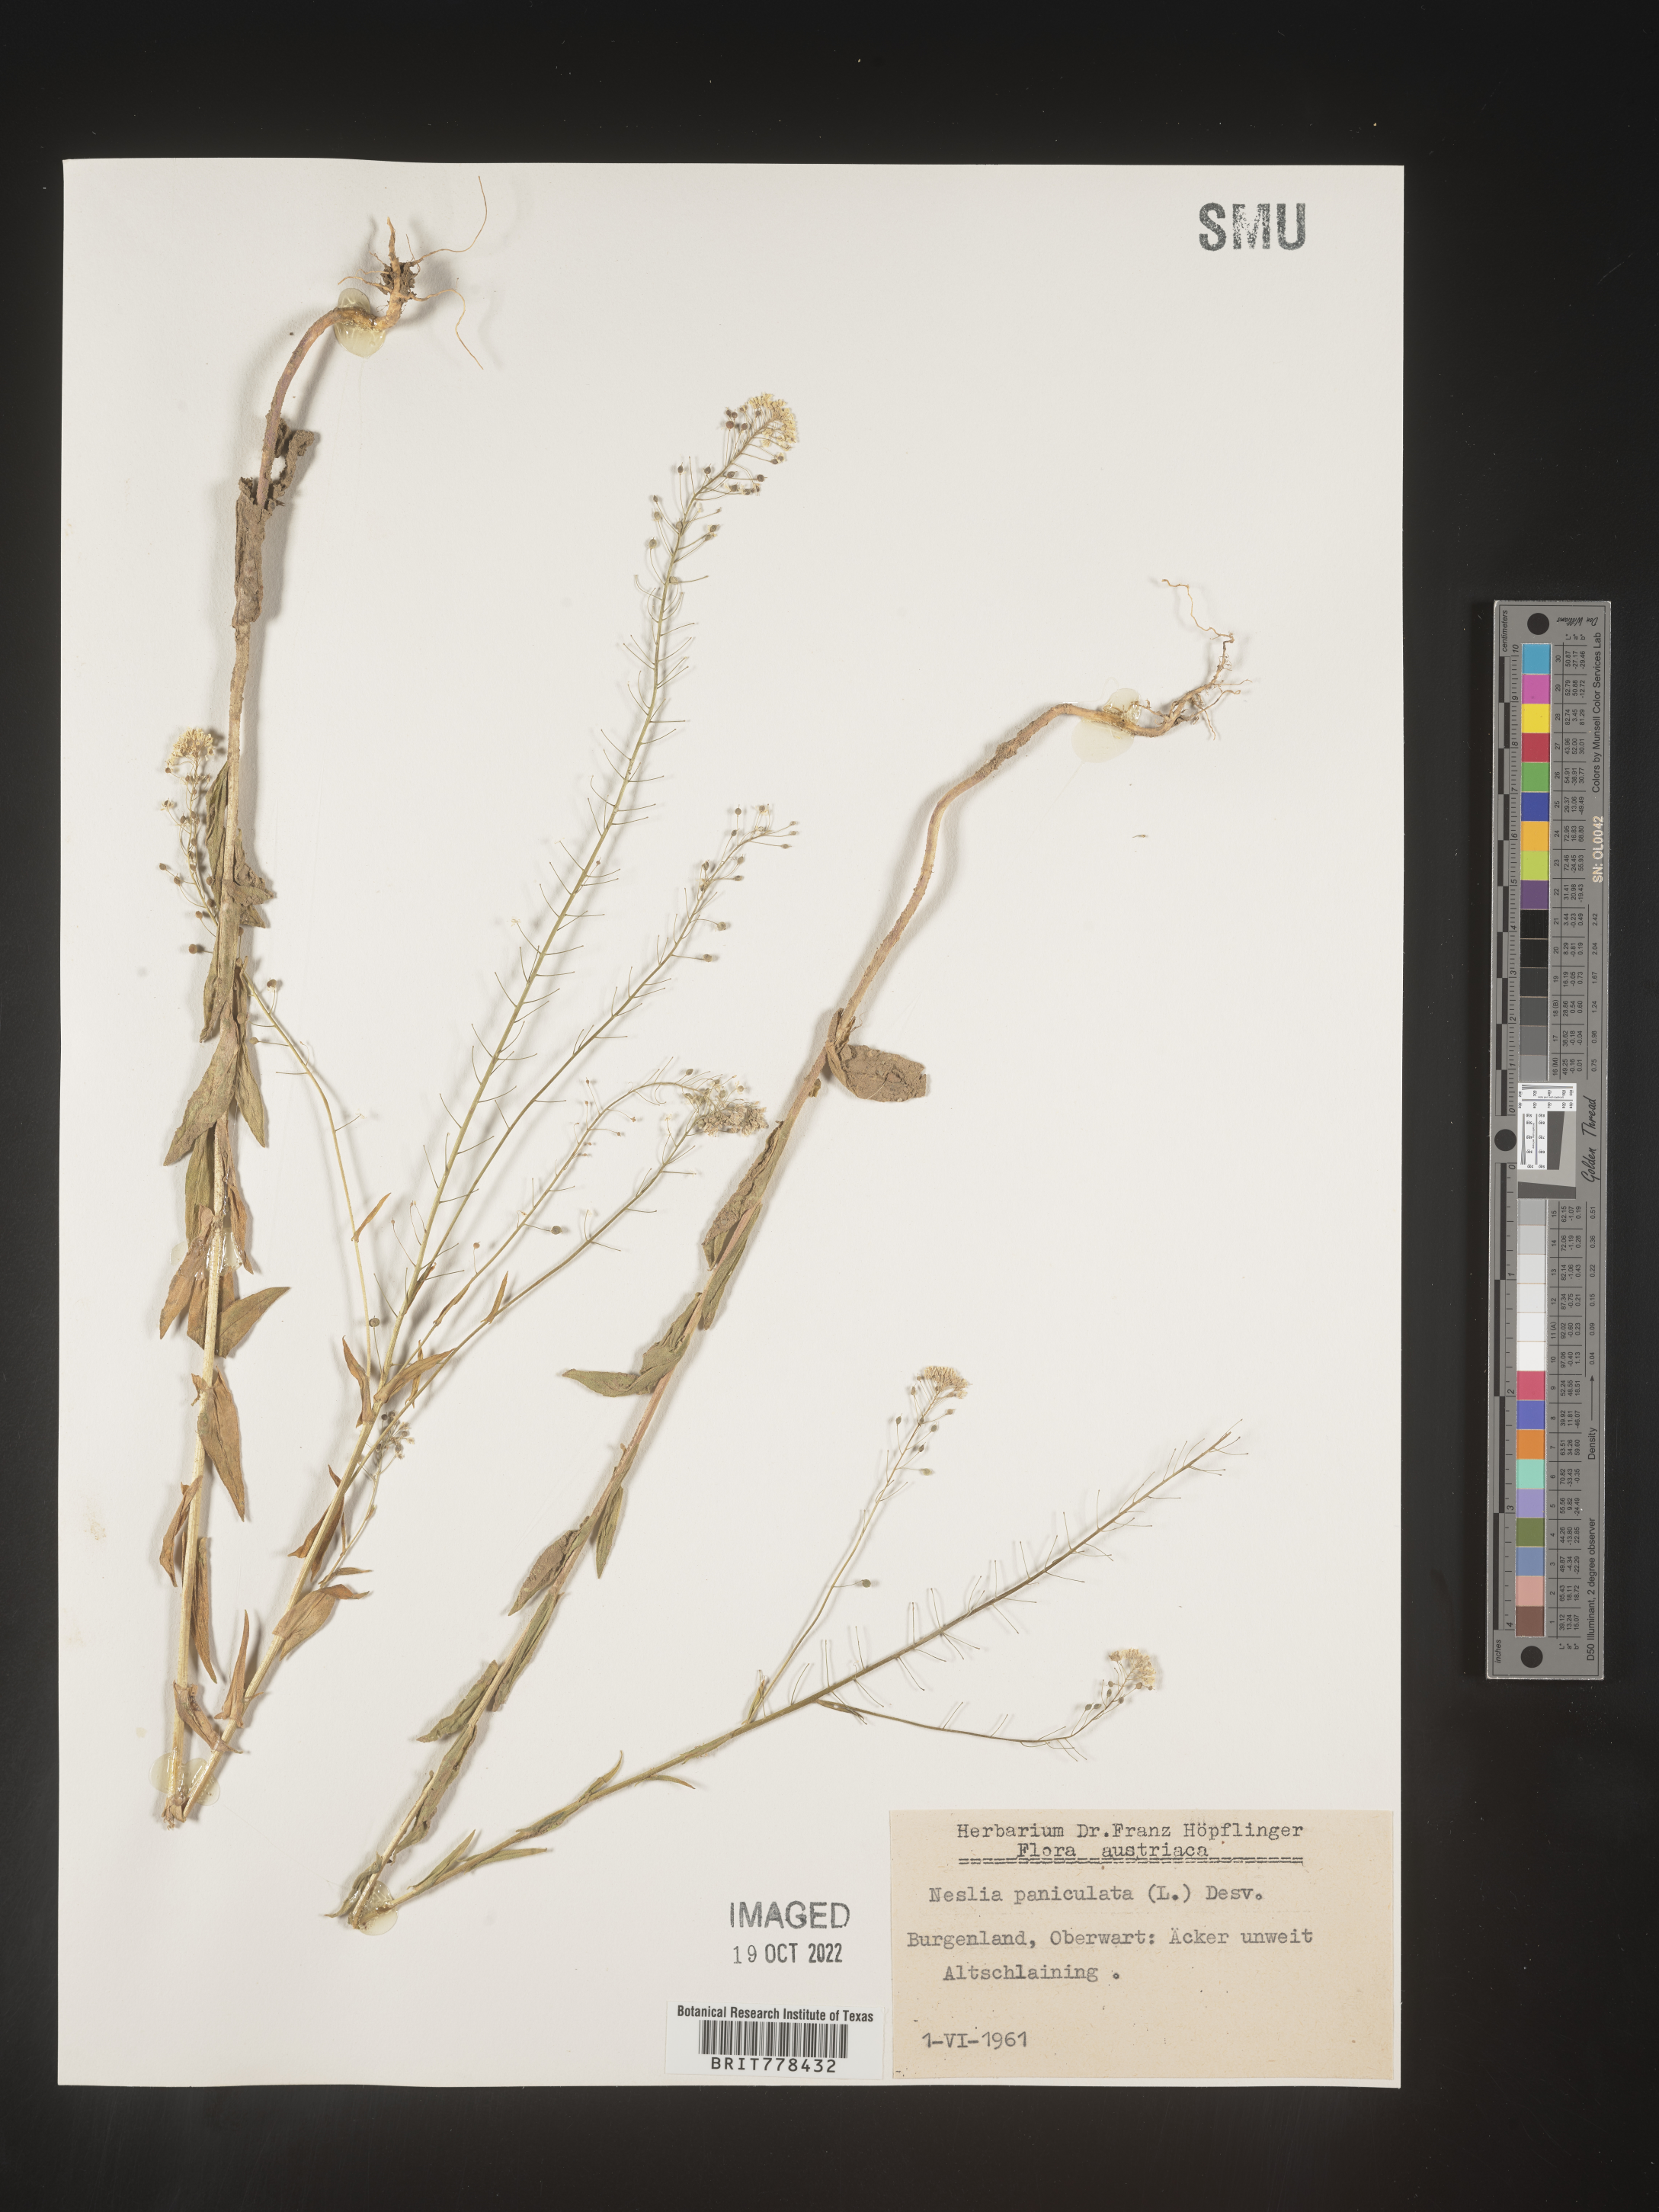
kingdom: Plantae
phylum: Tracheophyta
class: Magnoliopsida
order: Brassicales
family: Brassicaceae
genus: Neslia
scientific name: Neslia
